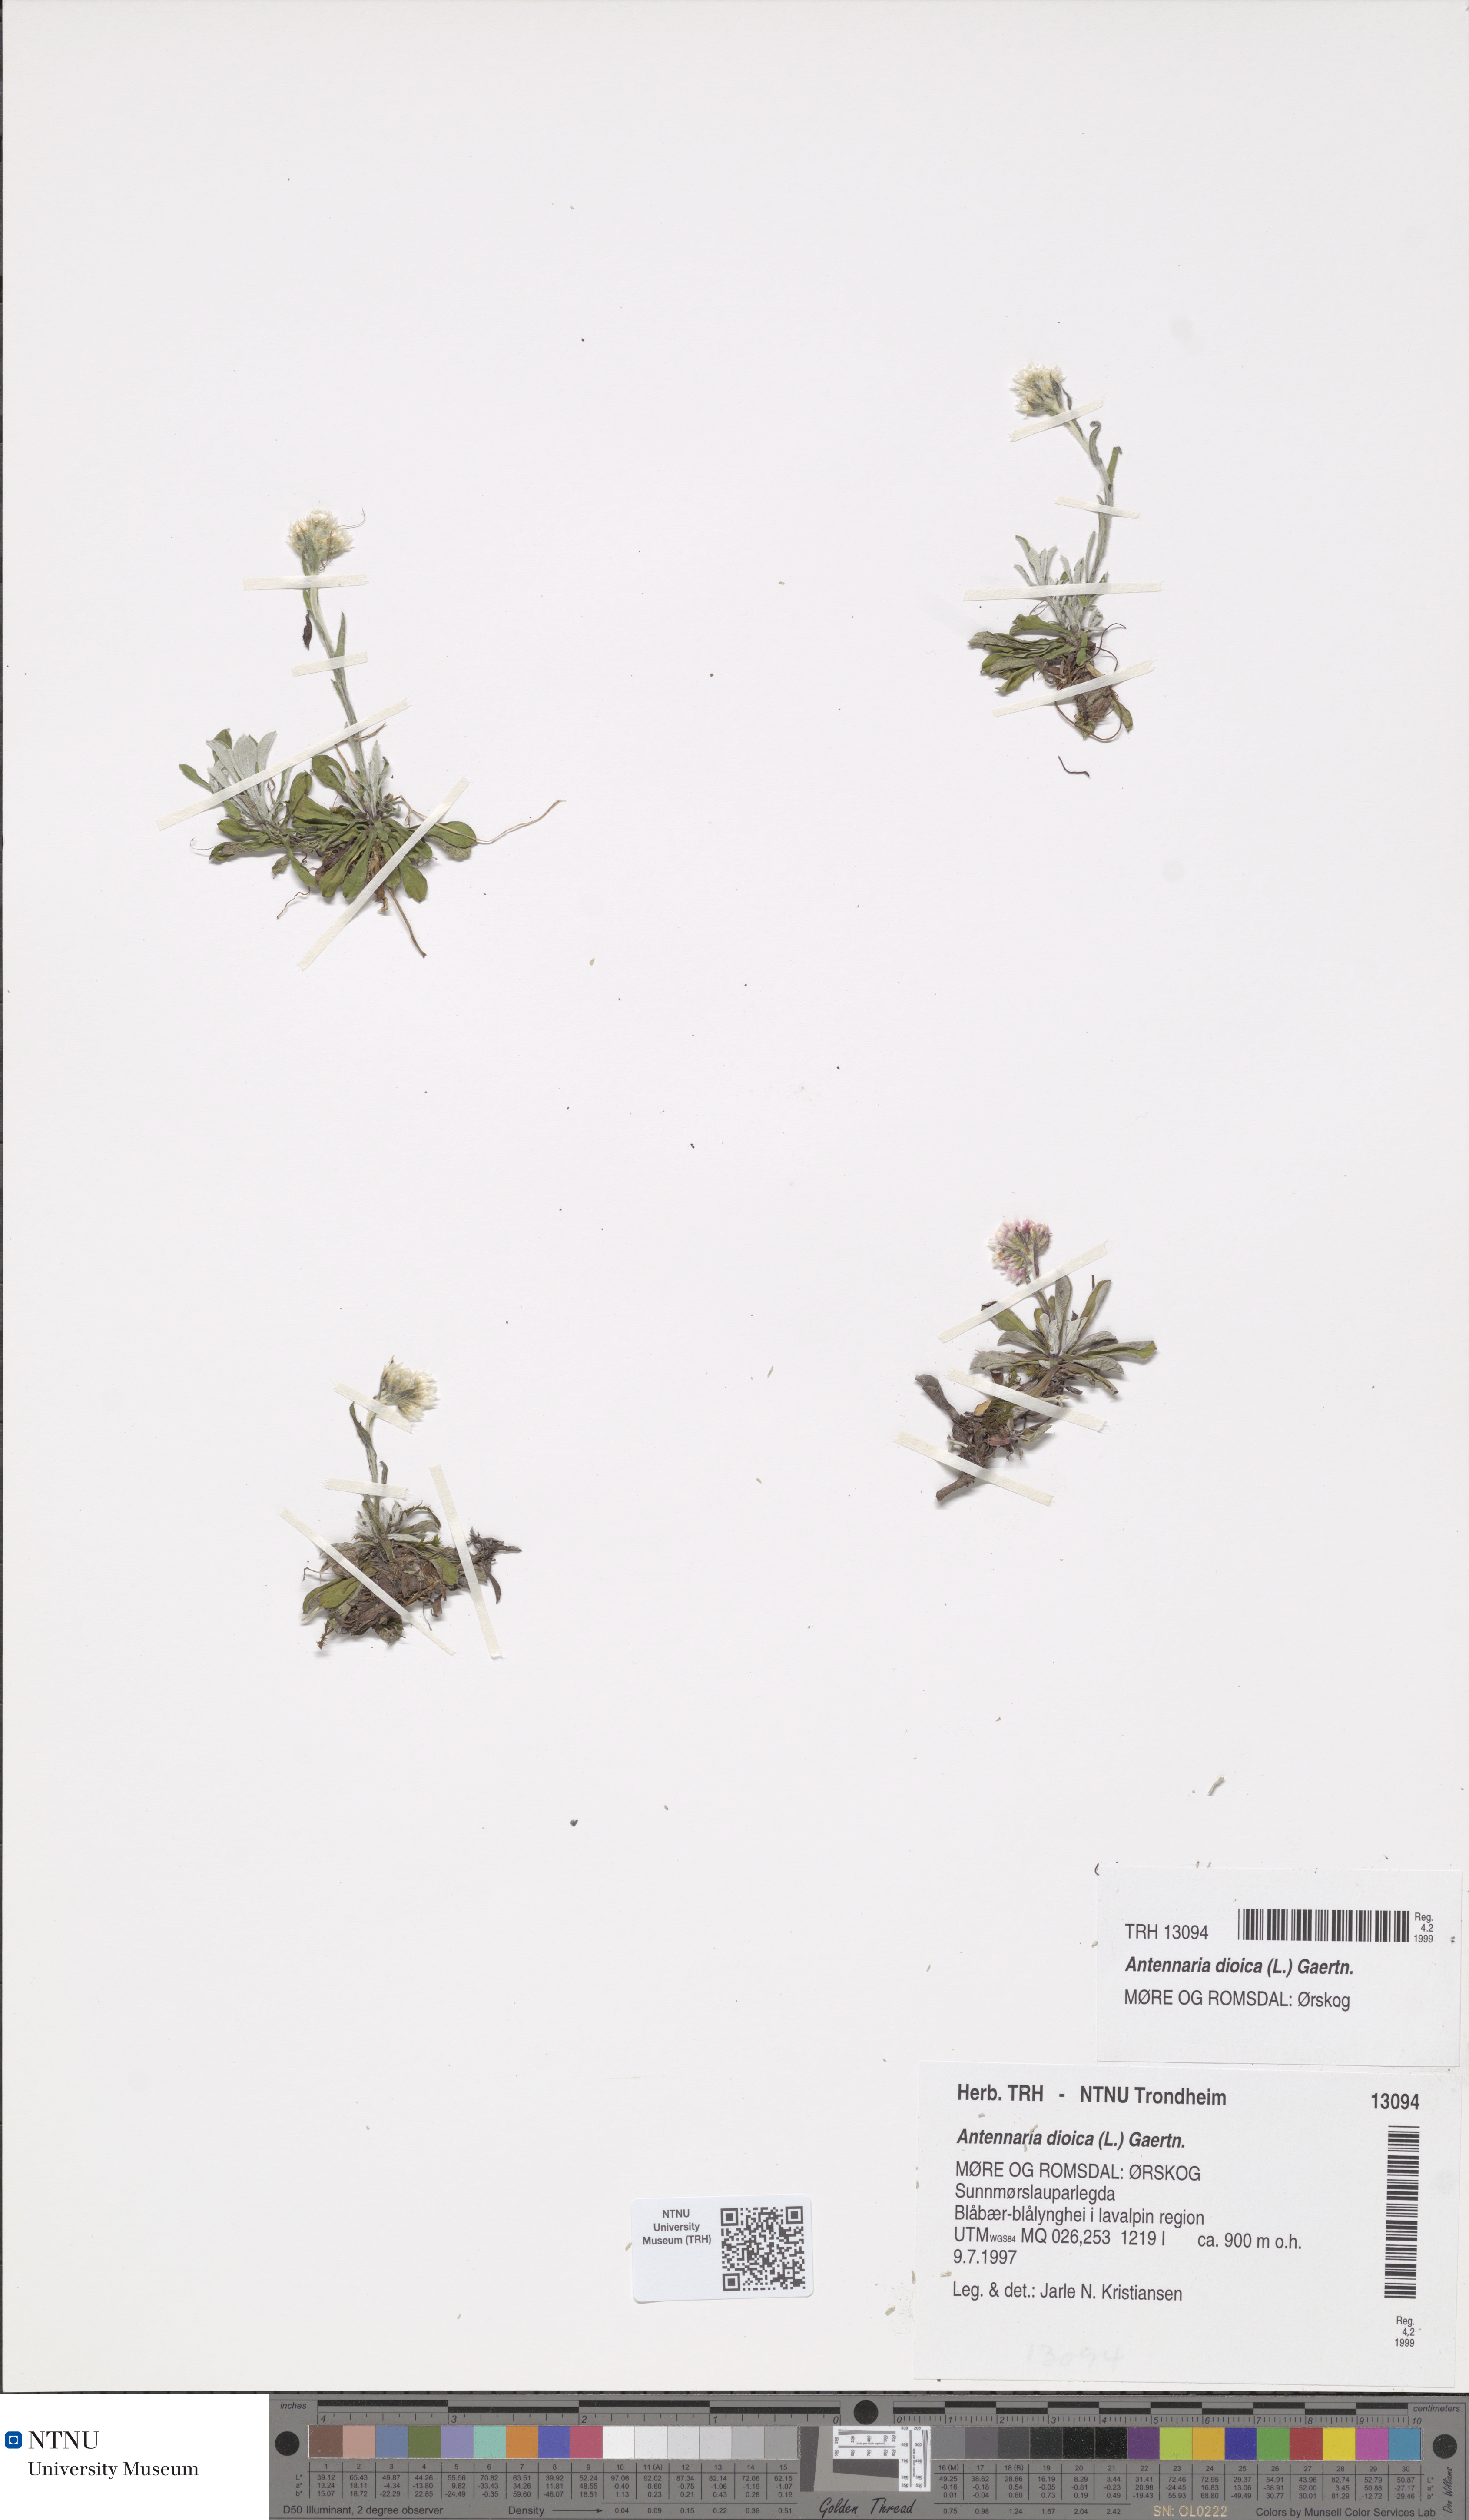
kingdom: Plantae
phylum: Tracheophyta
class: Magnoliopsida
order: Asterales
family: Asteraceae
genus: Antennaria
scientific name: Antennaria dioica
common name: Mountain everlasting
